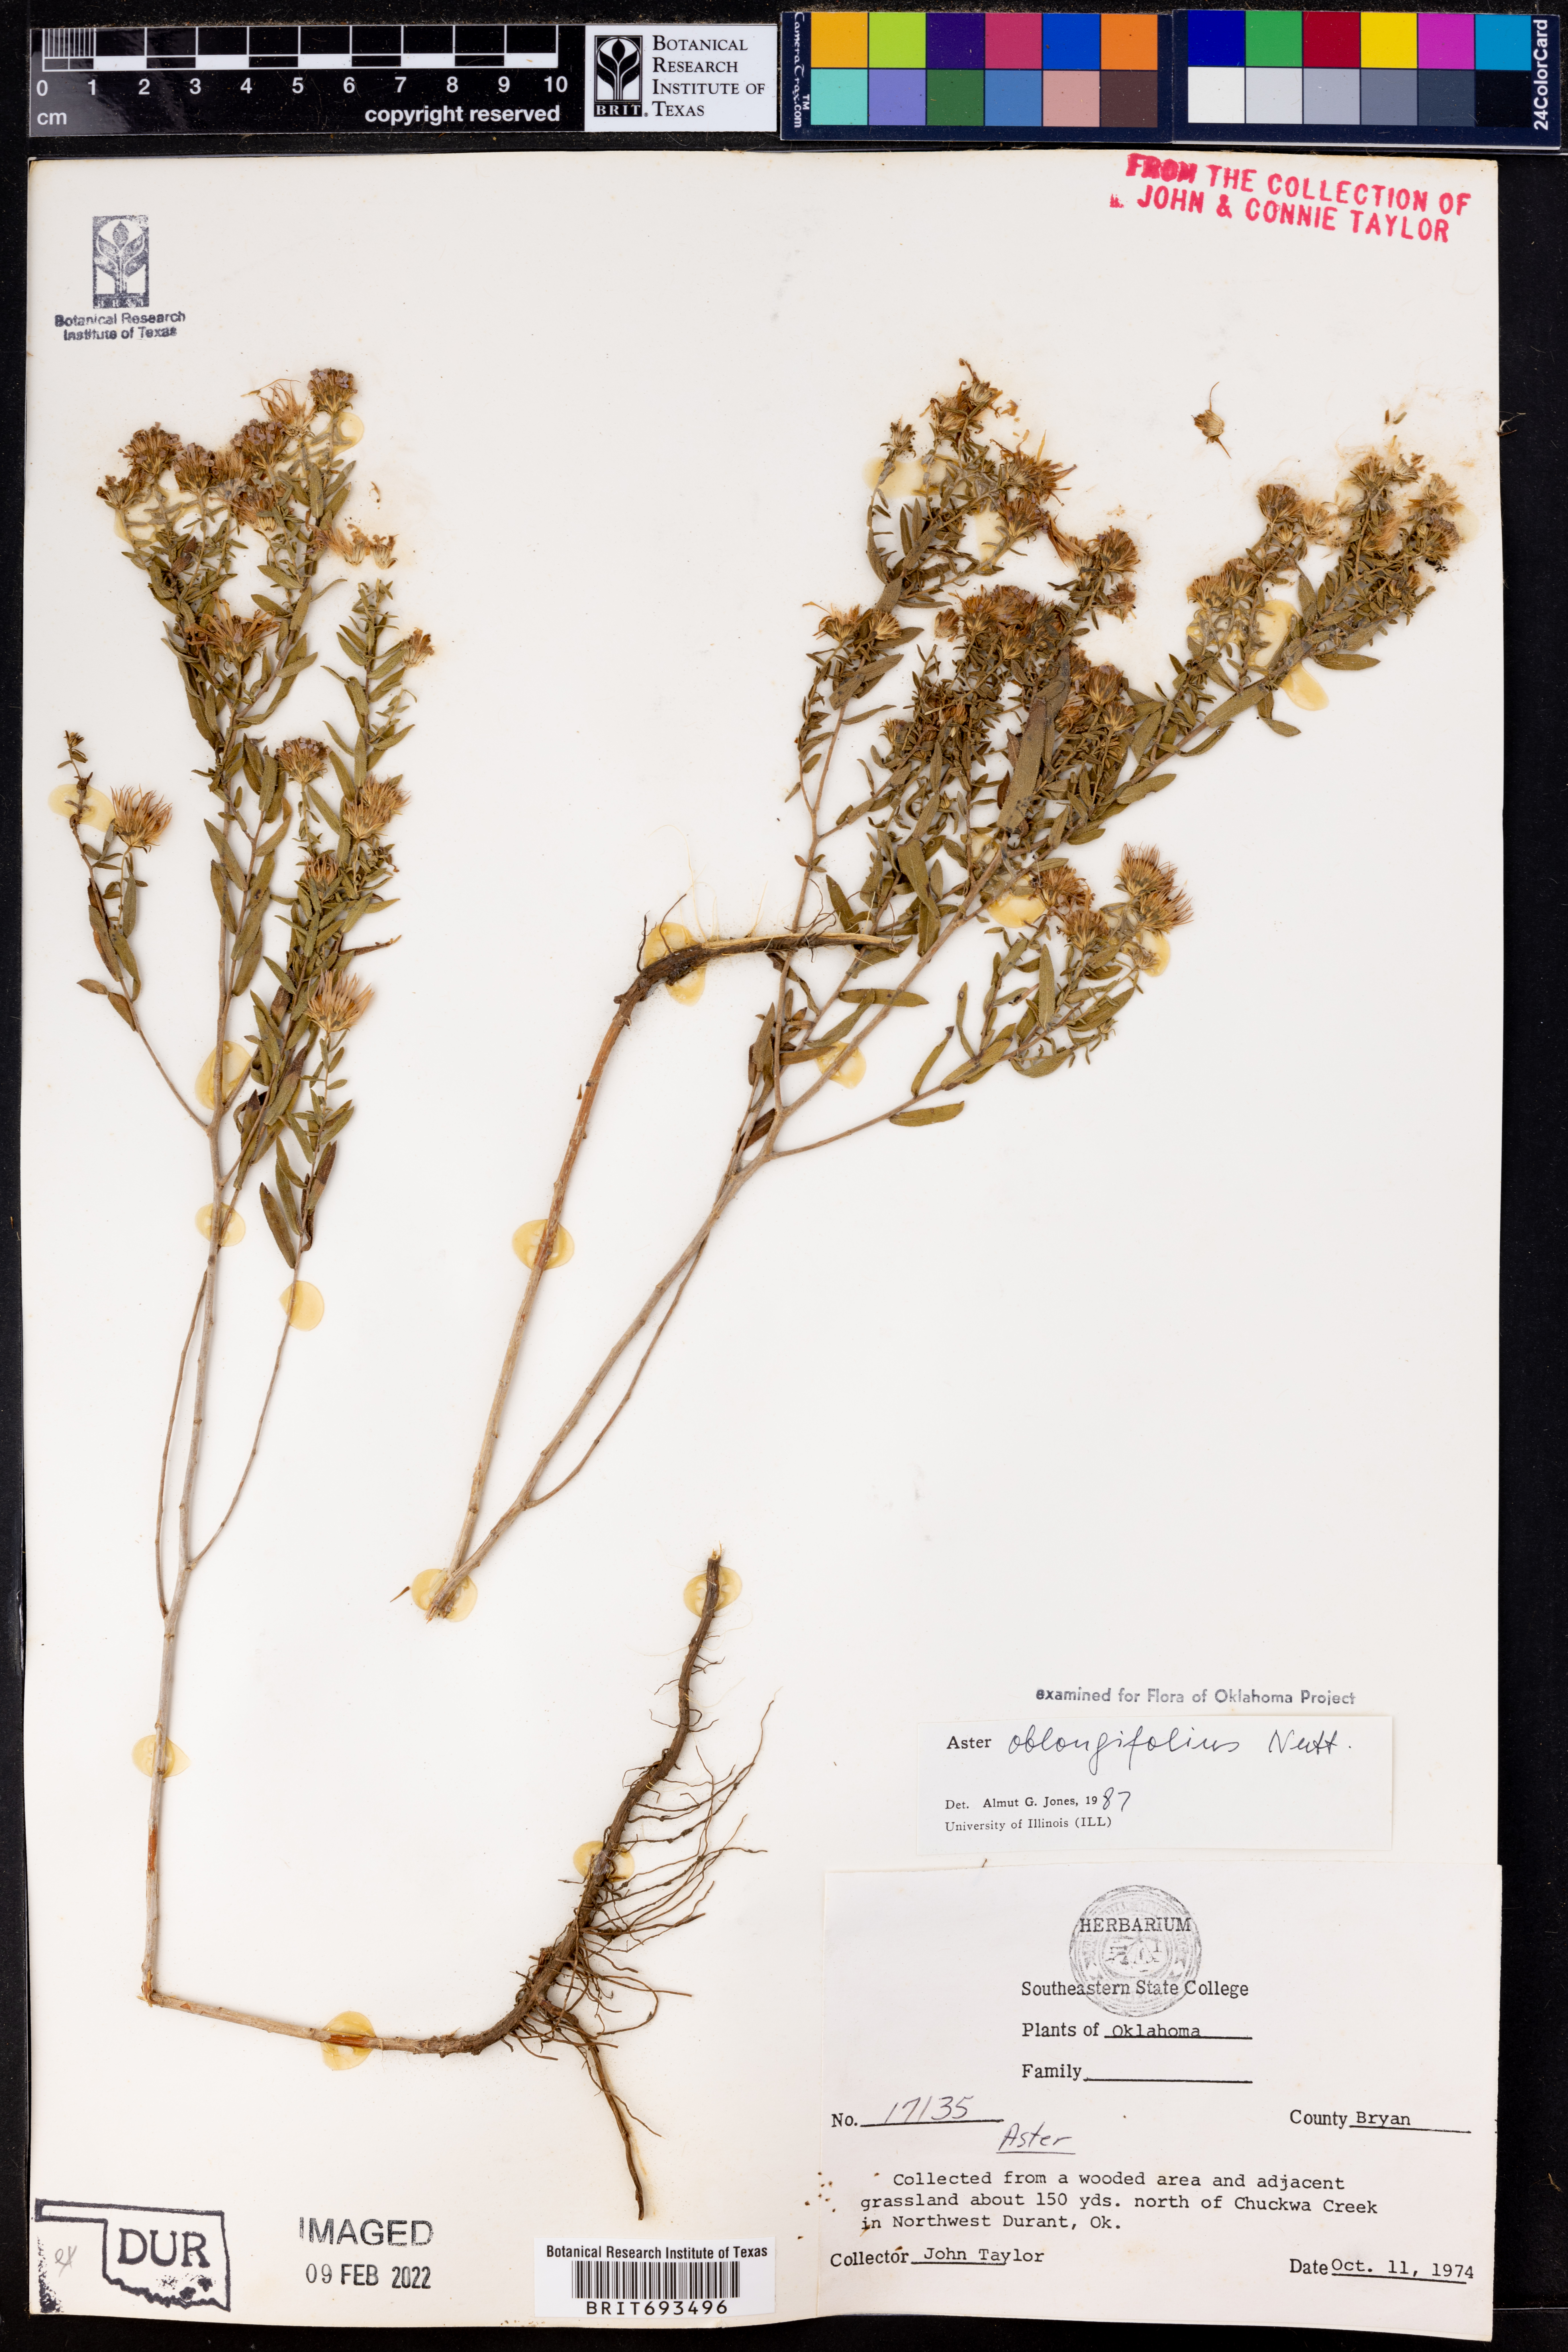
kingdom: Plantae
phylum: Tracheophyta
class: Magnoliopsida
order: Asterales
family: Asteraceae
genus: Symphyotrichum
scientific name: Symphyotrichum oblongifolium
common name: Aromatic aster
